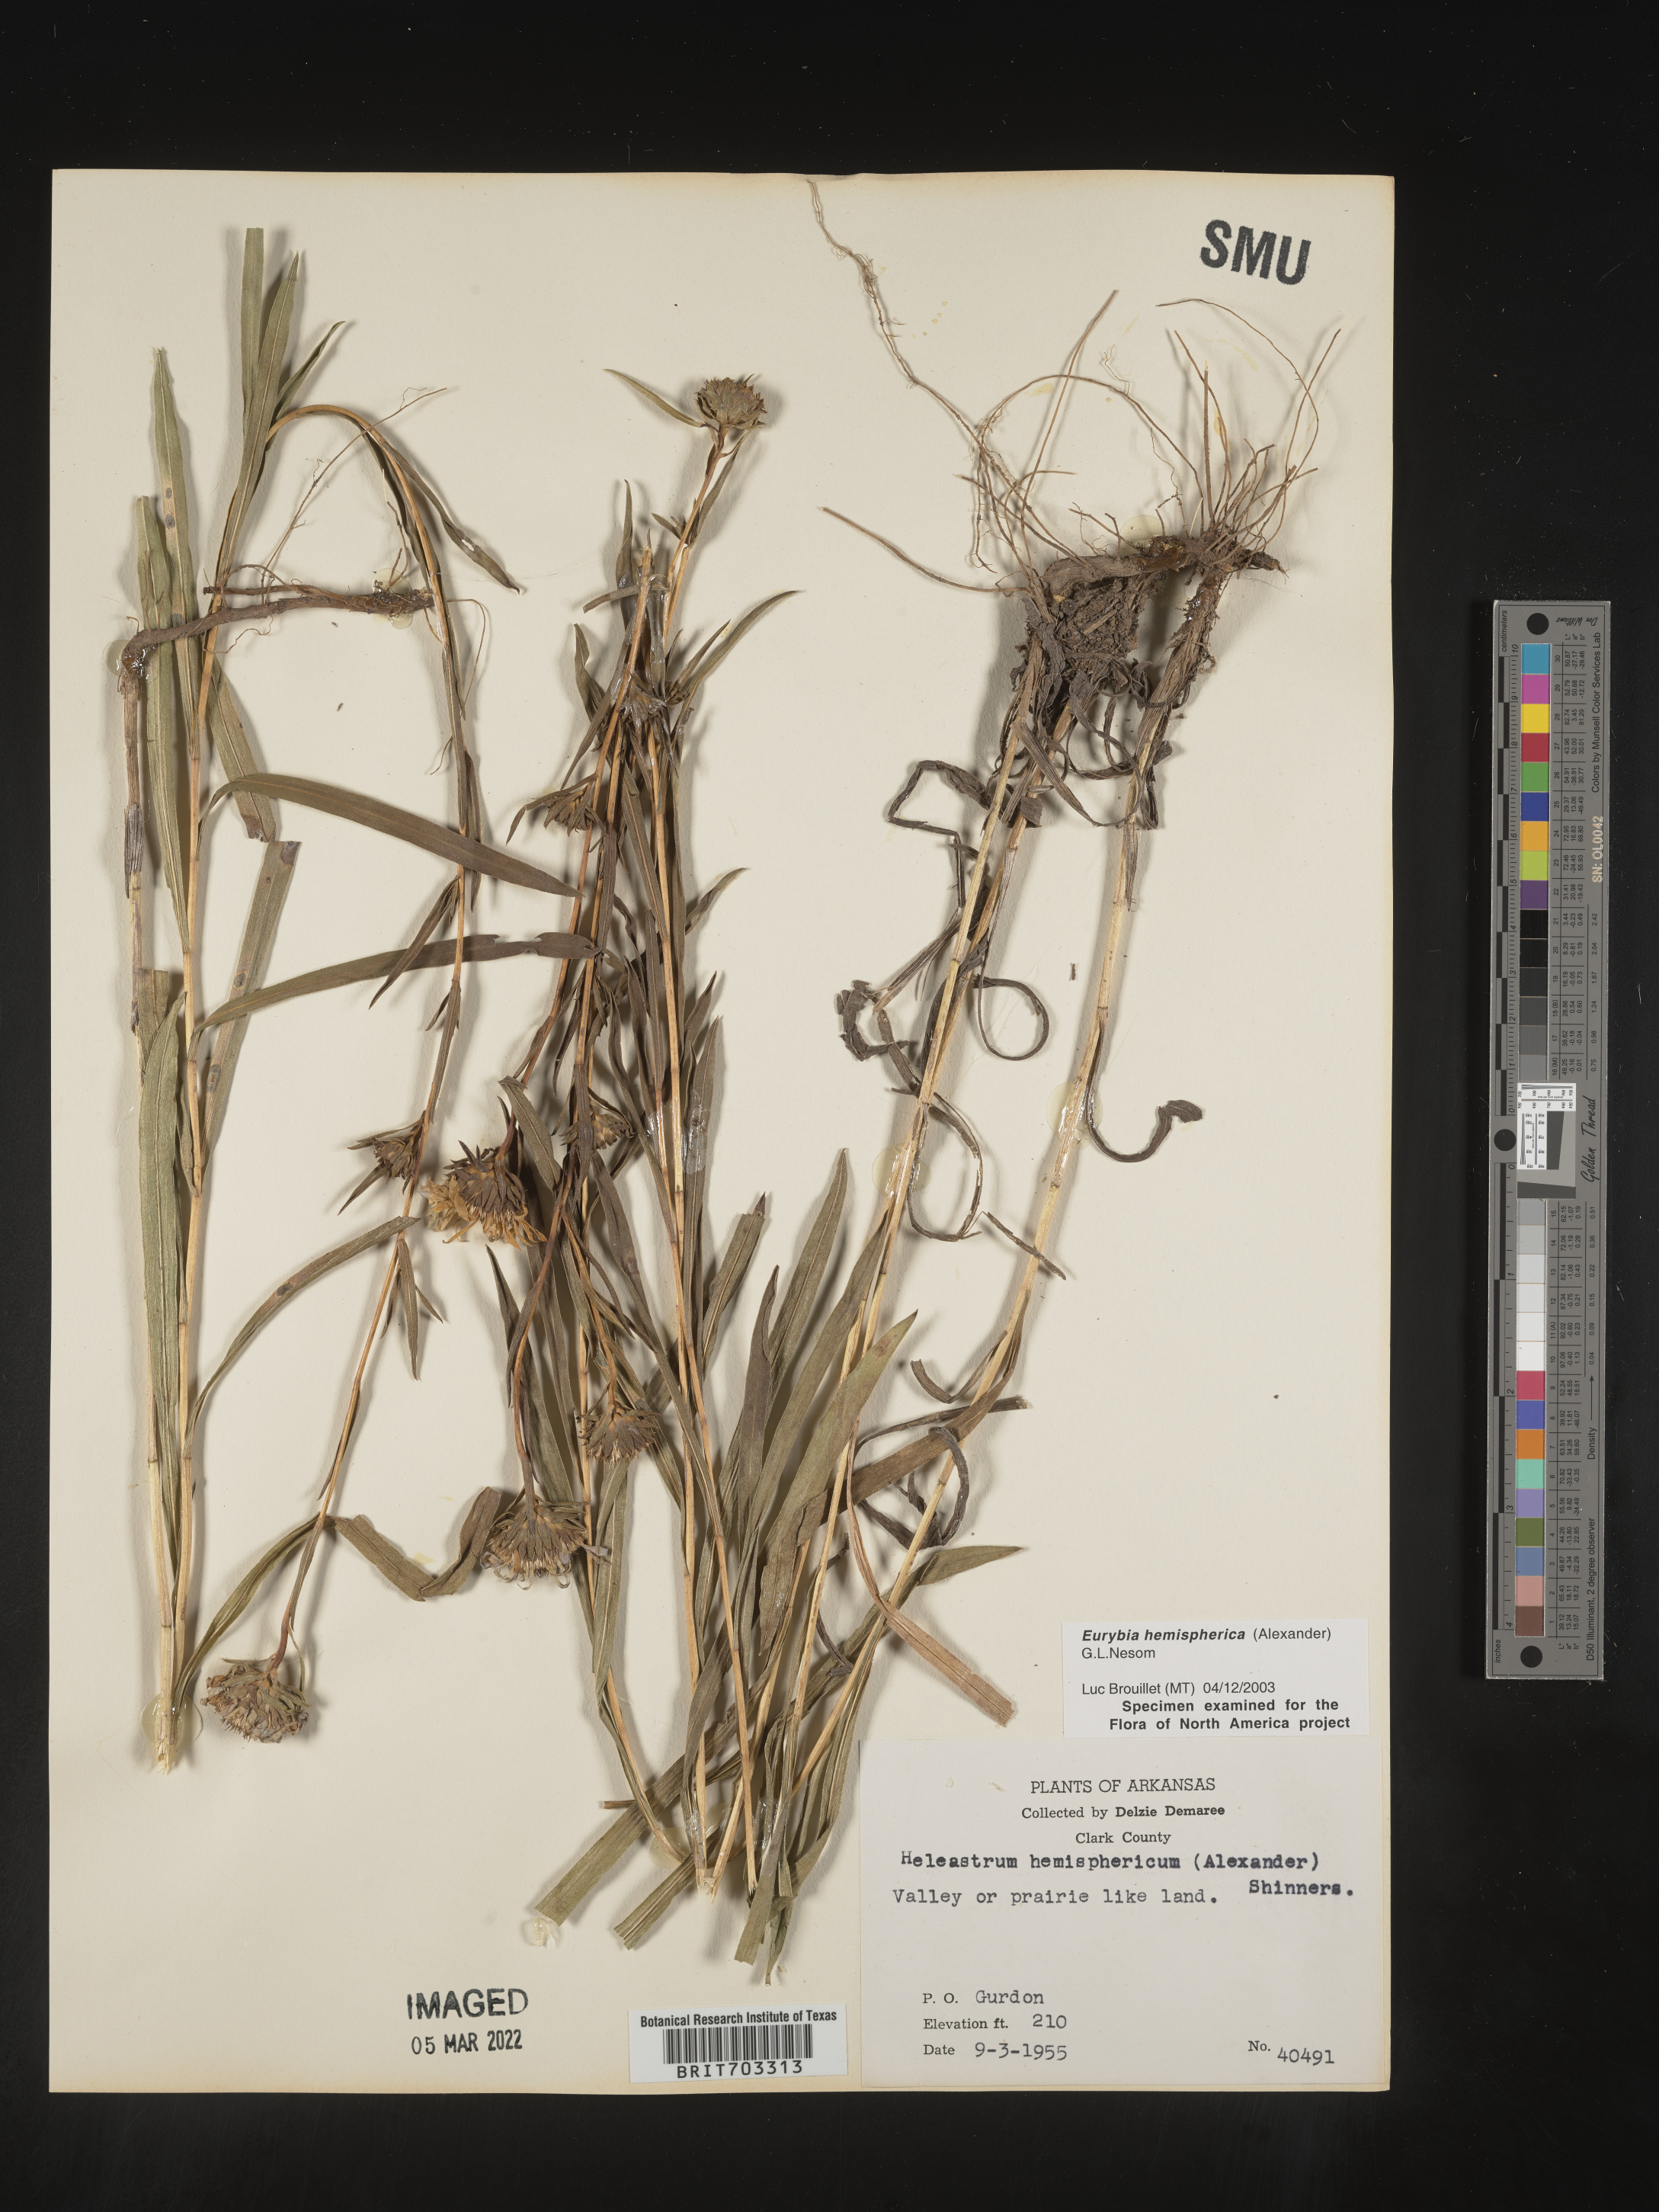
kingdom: Plantae
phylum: Tracheophyta
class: Magnoliopsida
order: Asterales
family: Asteraceae
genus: Eurybia
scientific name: Eurybia hemispherica
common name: Showy aster
